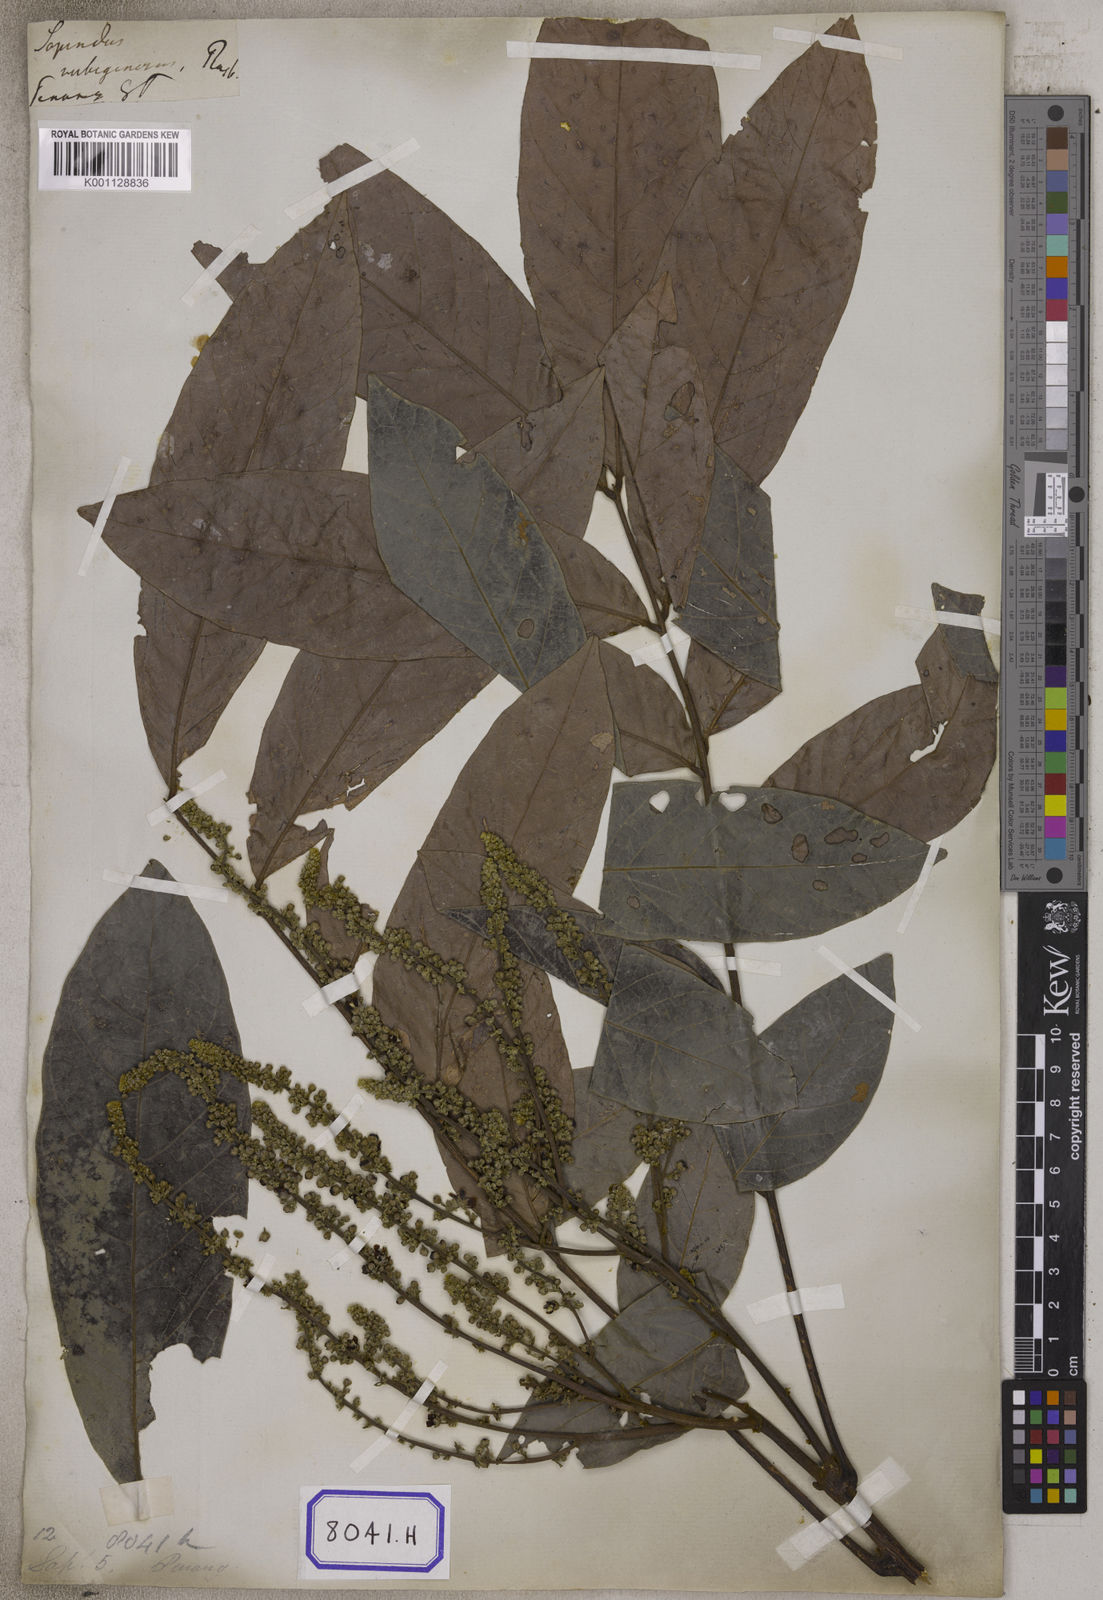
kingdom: Plantae
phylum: Tracheophyta
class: Magnoliopsida
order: Sapindales
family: Sapindaceae
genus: Lepisanthes
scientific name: Lepisanthes rubiginosa
